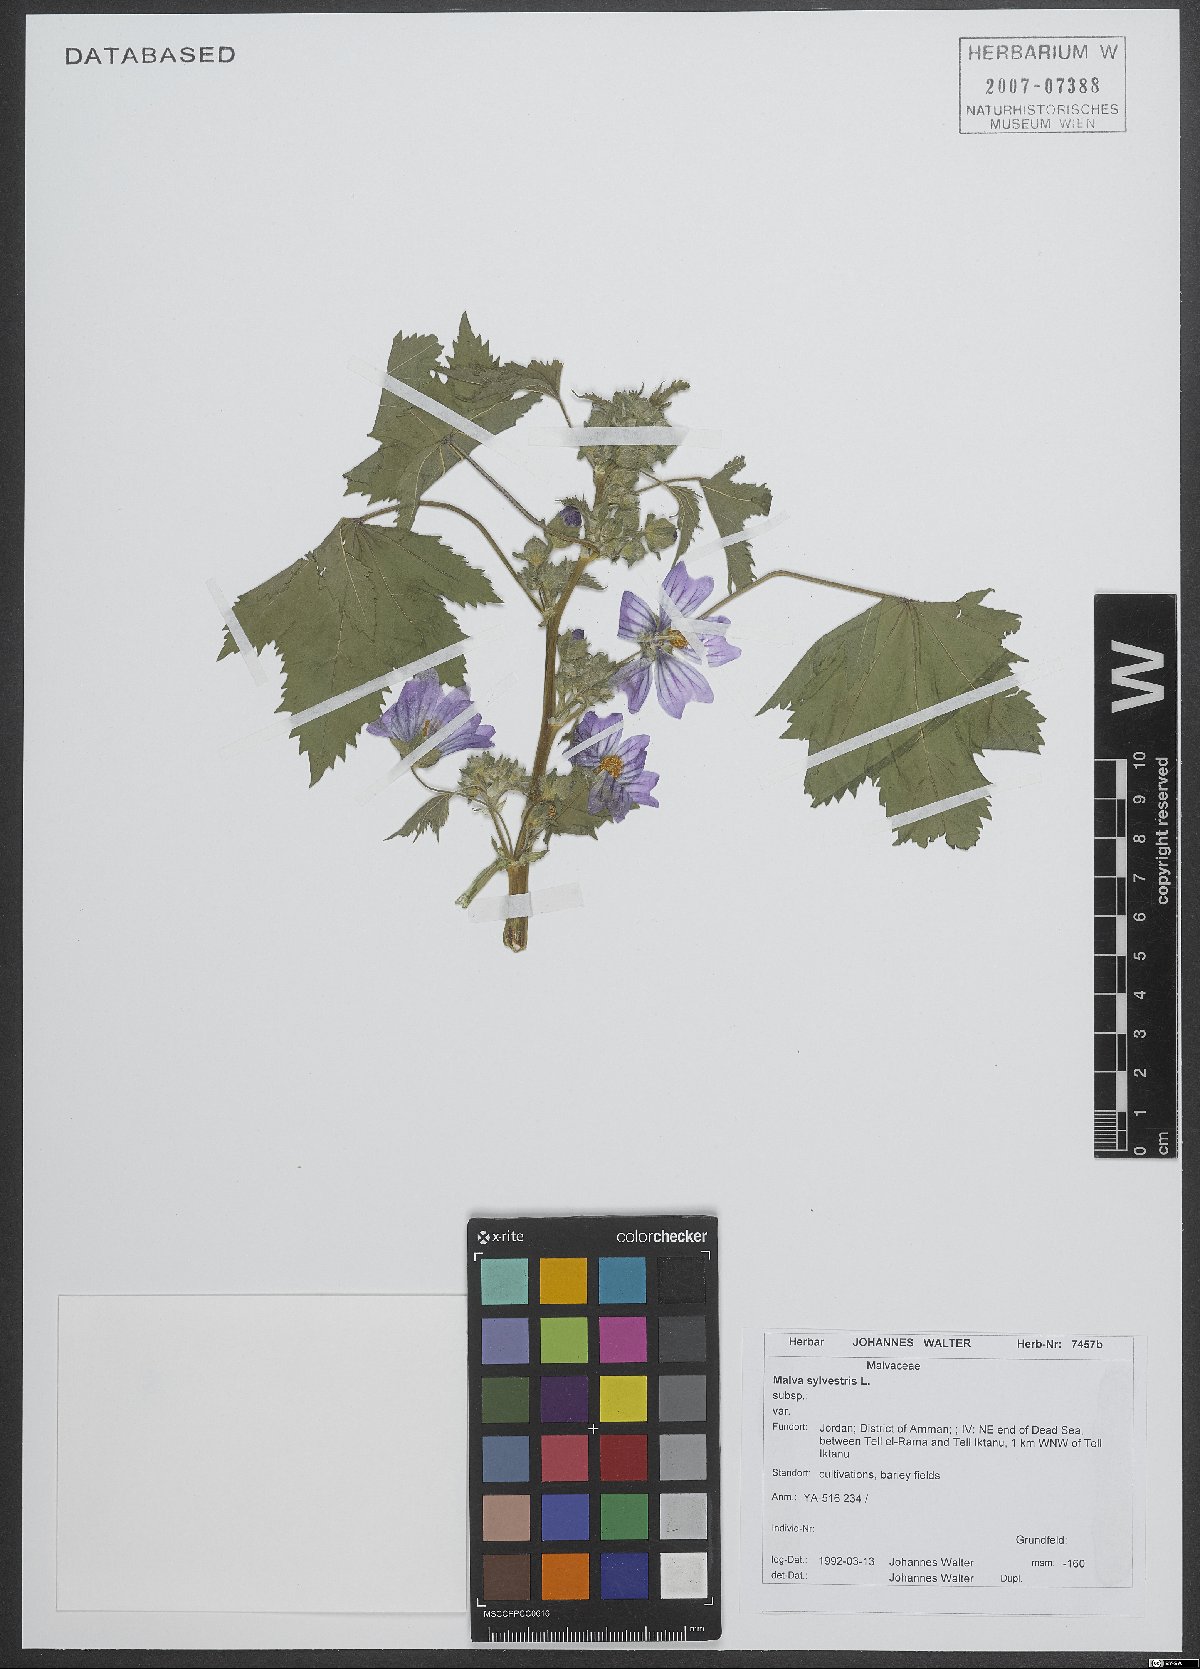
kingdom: Plantae
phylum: Tracheophyta
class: Magnoliopsida
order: Malvales
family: Malvaceae
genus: Malva
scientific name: Malva sylvestris
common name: Common mallow
